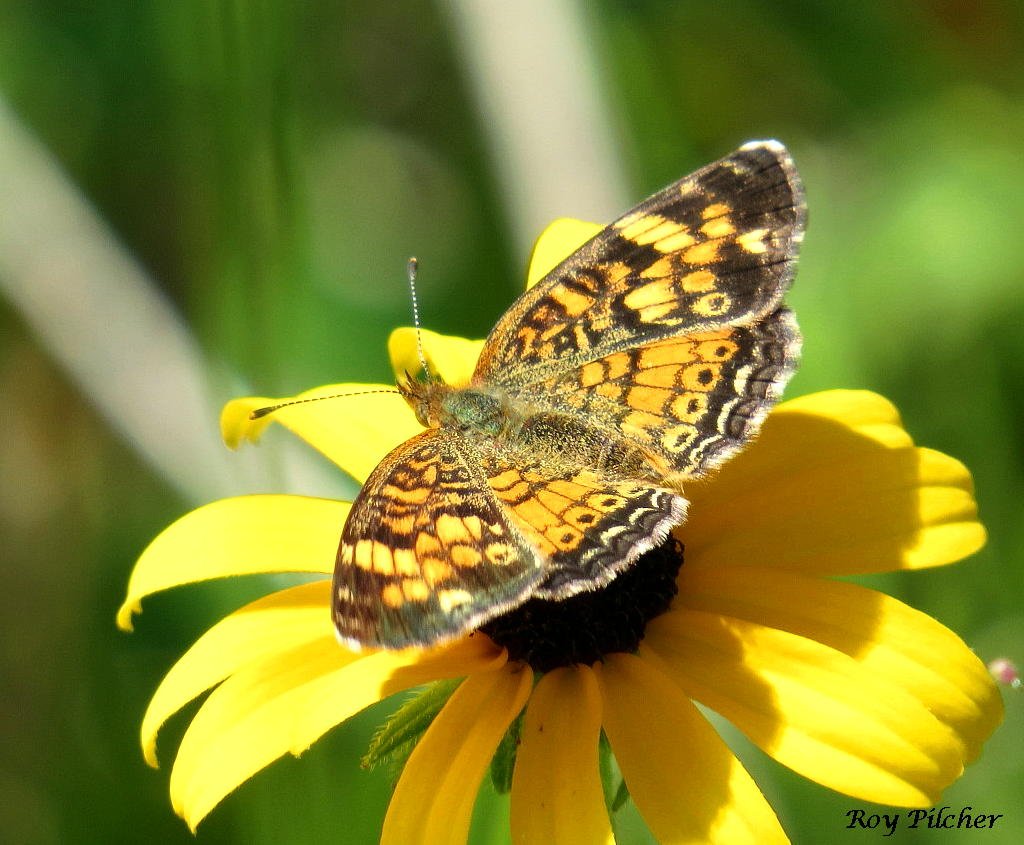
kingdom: Animalia
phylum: Arthropoda
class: Insecta
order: Lepidoptera
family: Nymphalidae
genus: Phyciodes
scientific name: Phyciodes tharos
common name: Pearl Crescent
